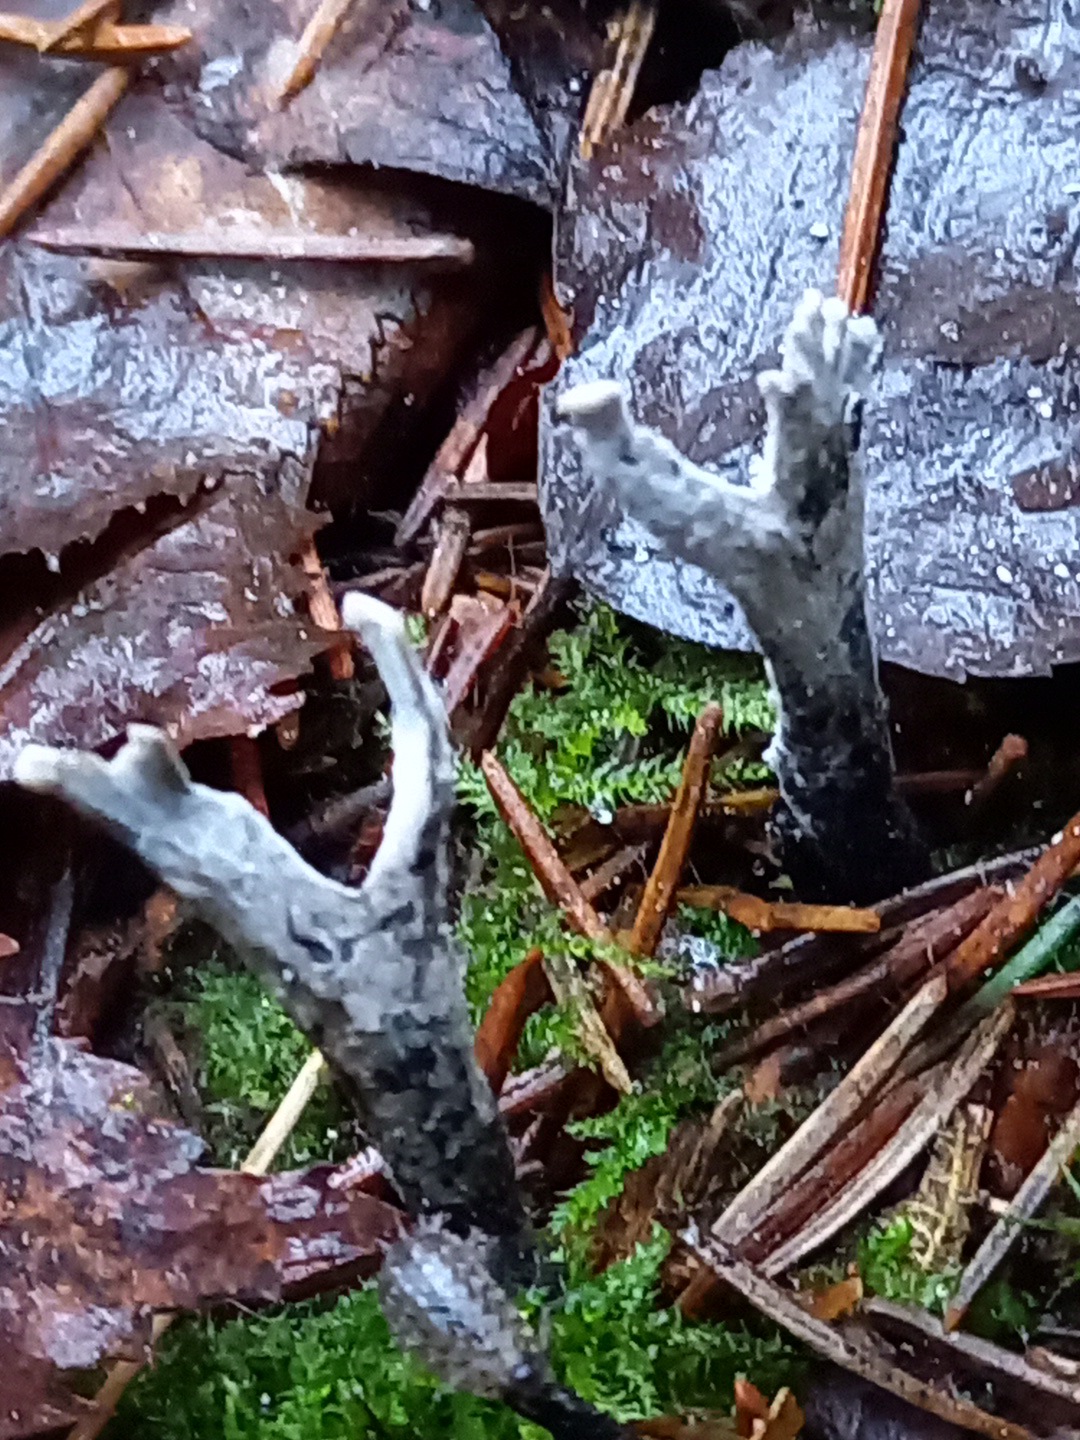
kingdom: Fungi
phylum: Ascomycota
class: Sordariomycetes
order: Xylariales
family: Xylariaceae
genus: Xylaria
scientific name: Xylaria hypoxylon
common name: grenet stødsvamp
